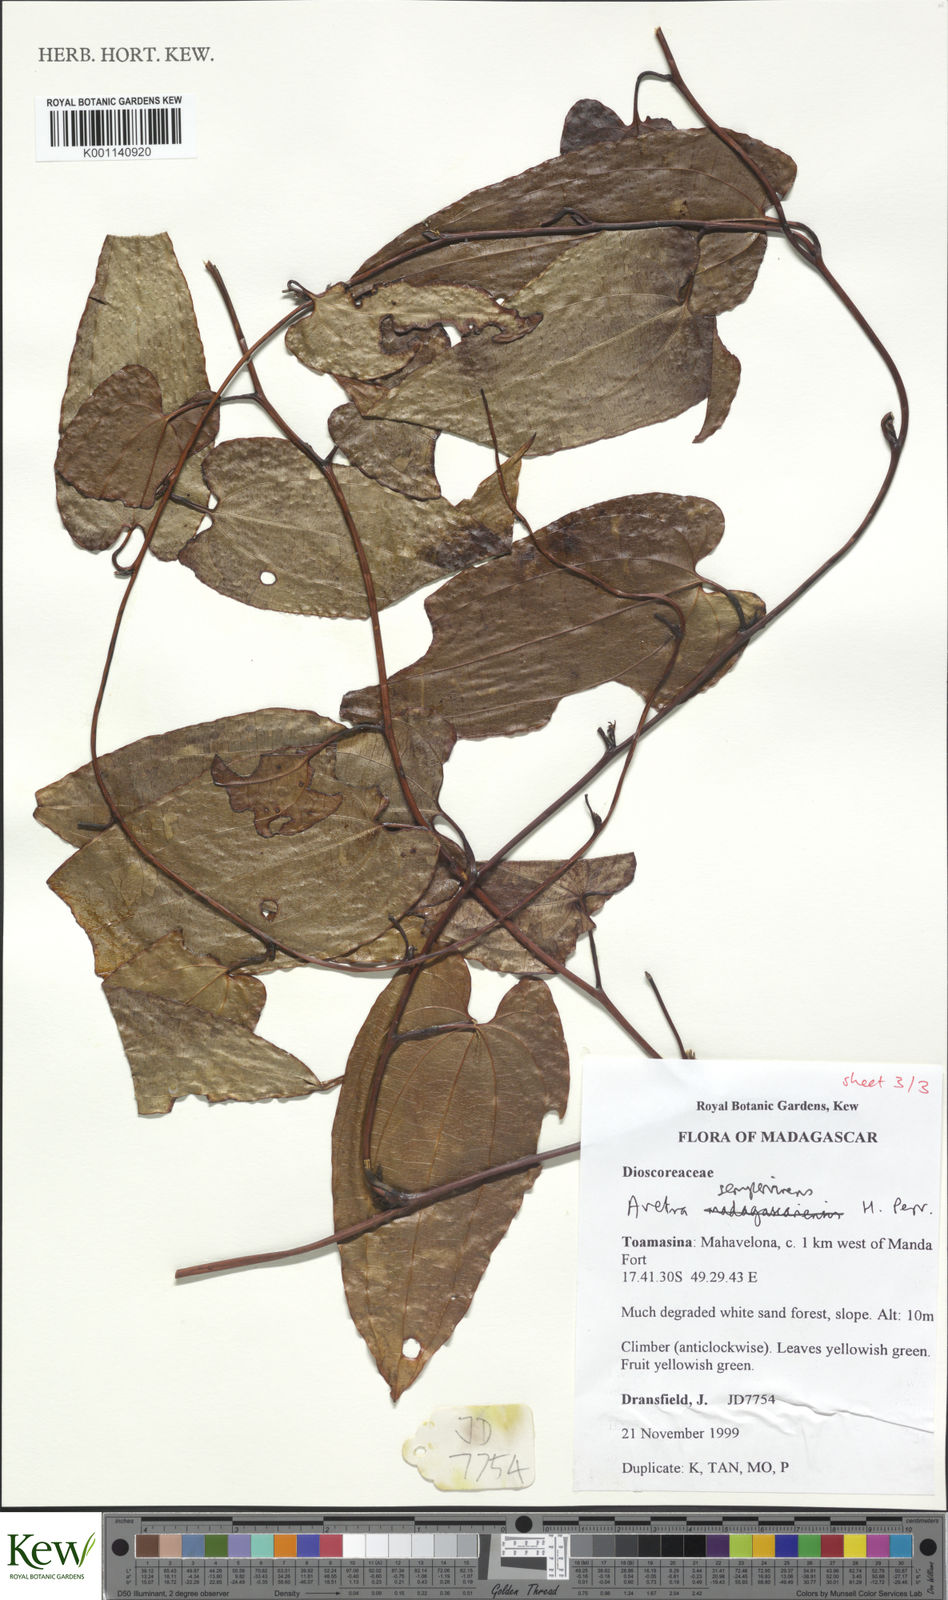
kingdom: Plantae
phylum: Tracheophyta
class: Liliopsida
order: Dioscoreales
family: Dioscoreaceae
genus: Trichopus
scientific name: Trichopus sempervirens
